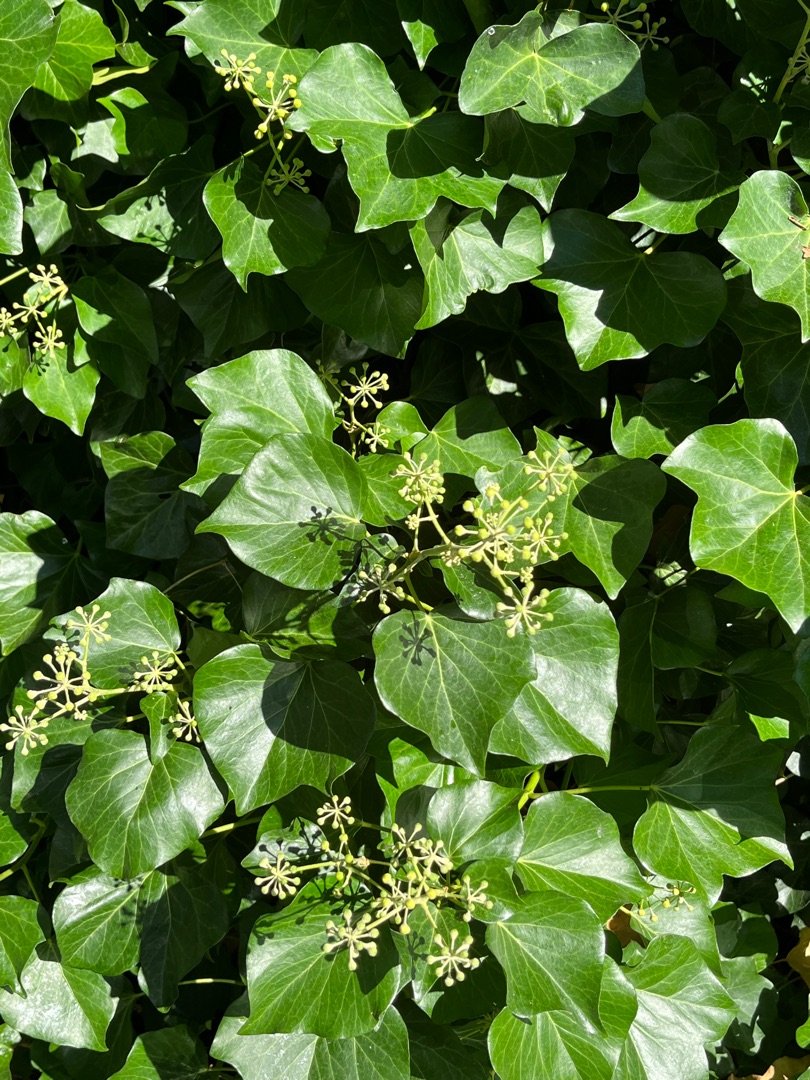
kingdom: Plantae
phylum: Tracheophyta
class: Magnoliopsida
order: Apiales
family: Araliaceae
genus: Hedera
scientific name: Hedera helix
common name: Vedbend
